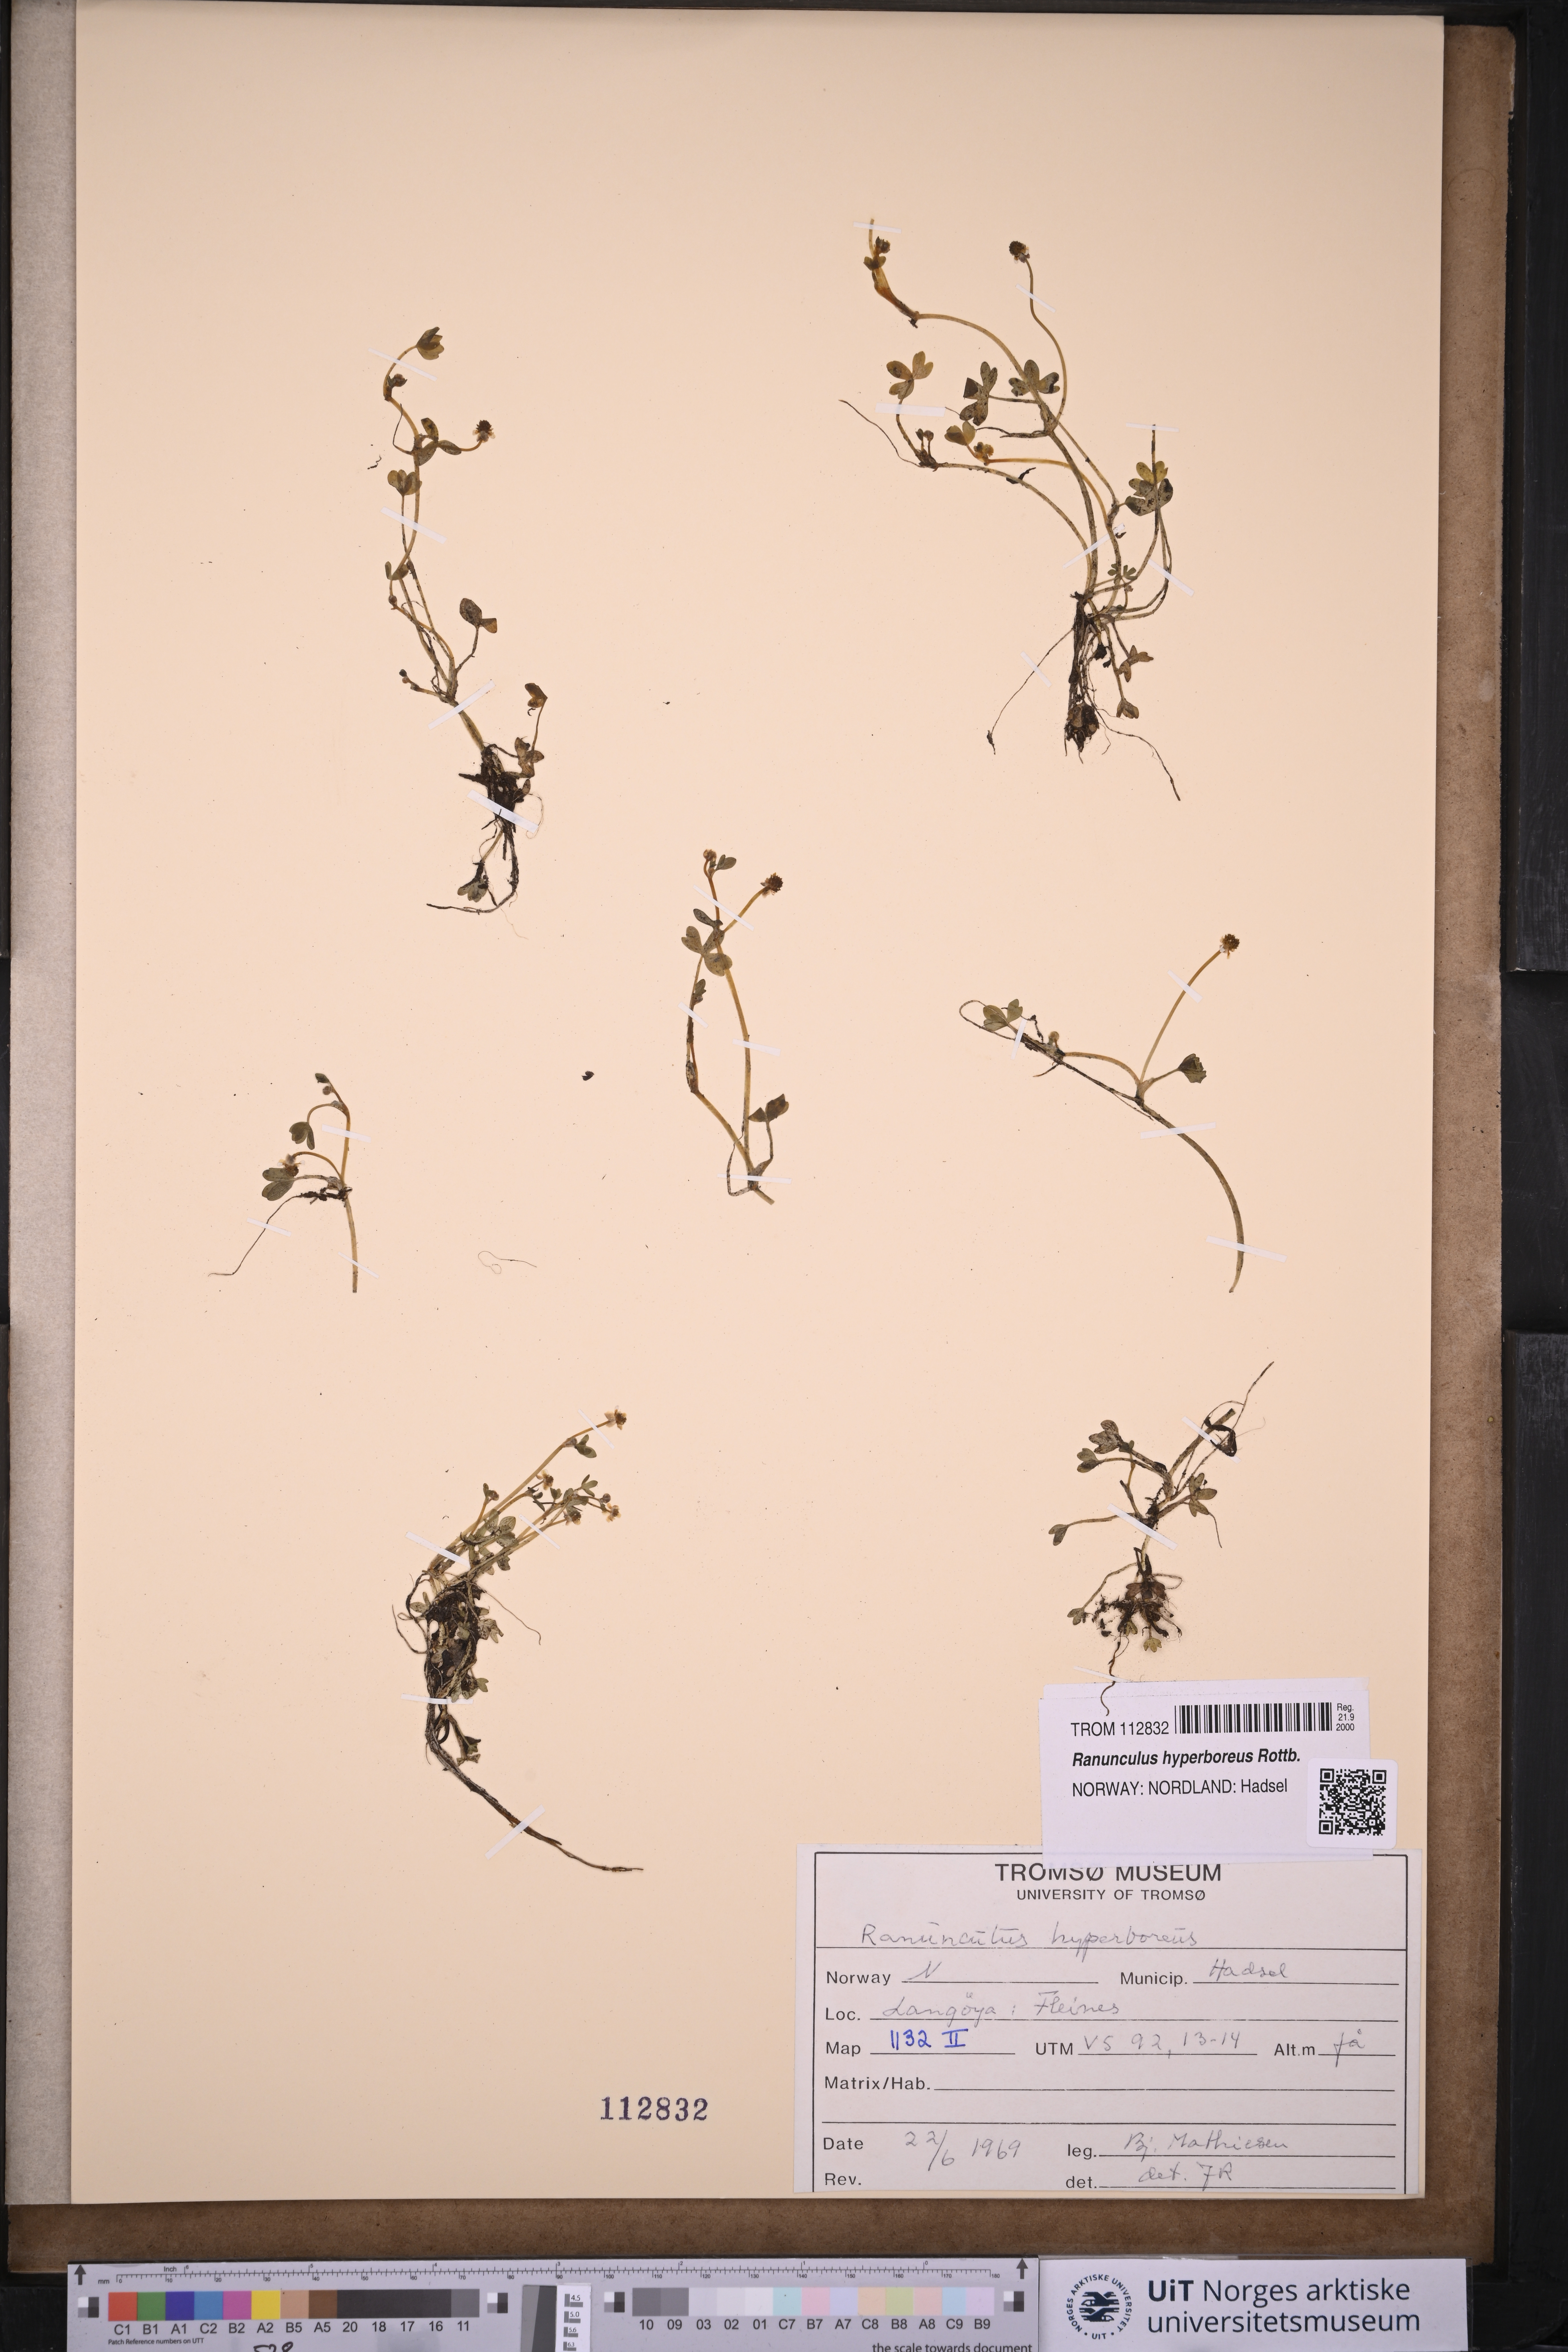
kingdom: Plantae
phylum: Tracheophyta
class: Magnoliopsida
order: Ranunculales
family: Ranunculaceae
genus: Ranunculus
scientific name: Ranunculus hyperboreus
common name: Arctic buttercup
